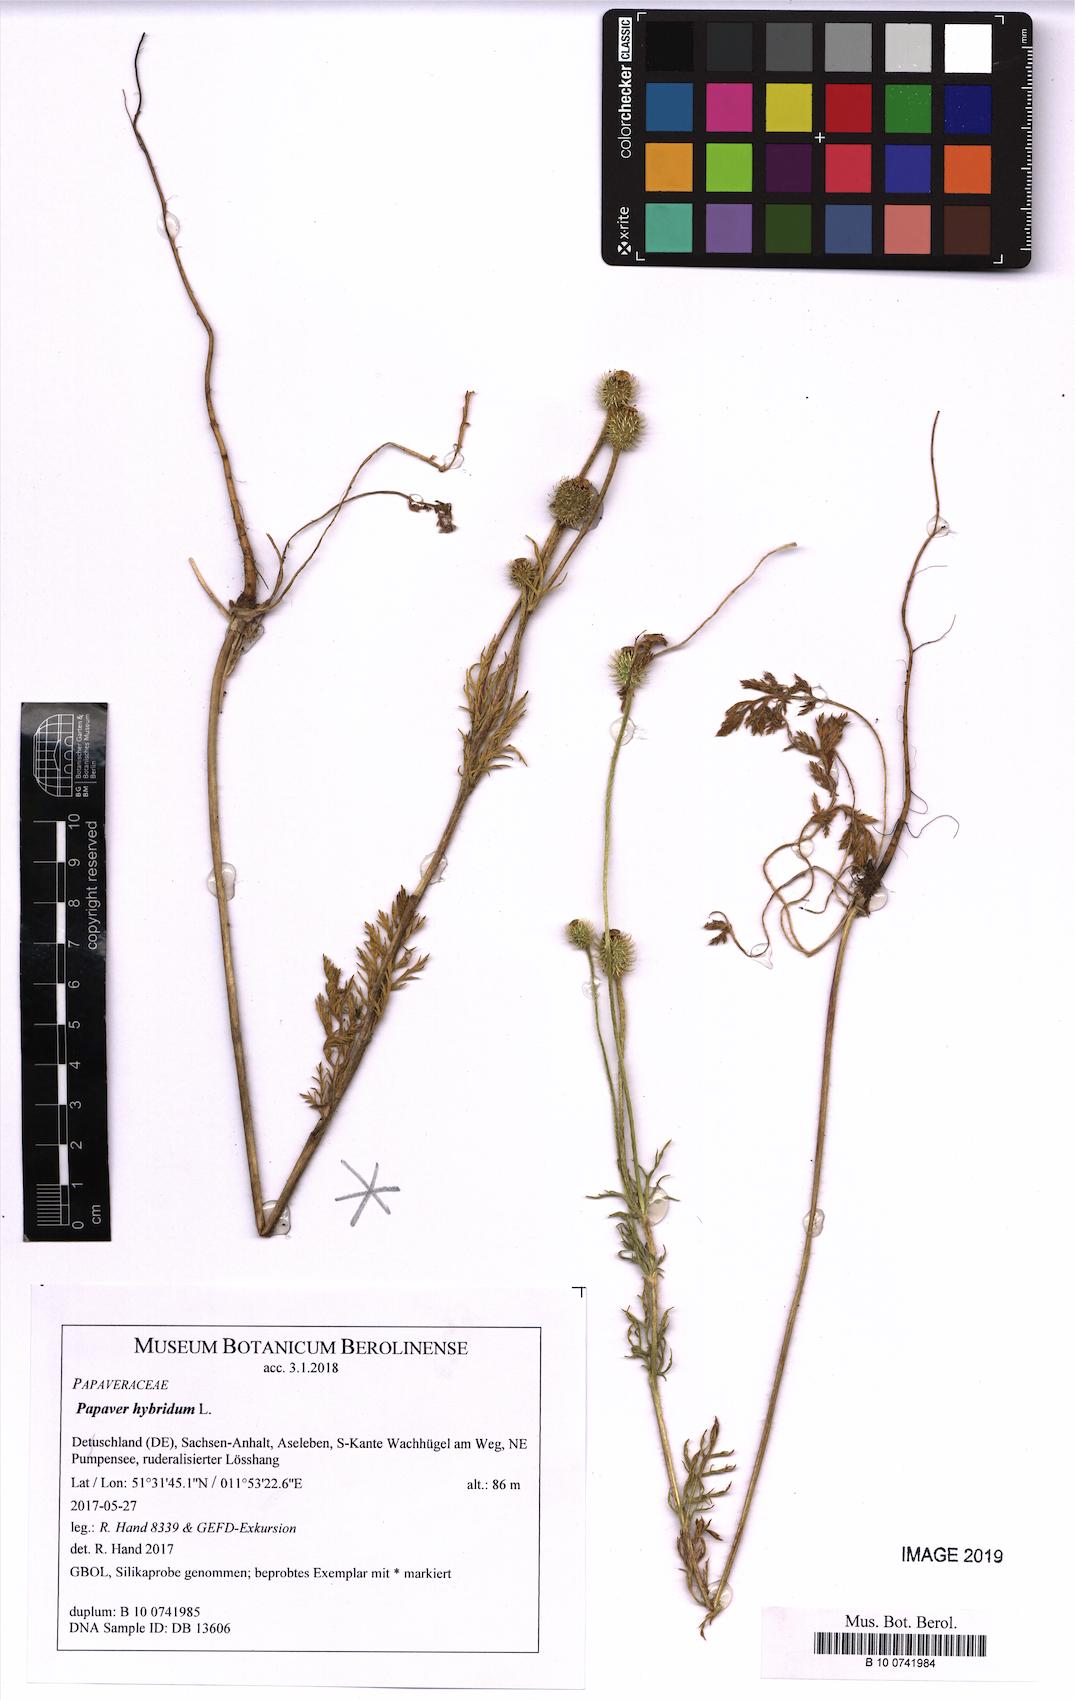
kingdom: Plantae
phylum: Tracheophyta
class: Magnoliopsida
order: Ranunculales
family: Papaveraceae
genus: Roemeria
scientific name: Roemeria hispida
